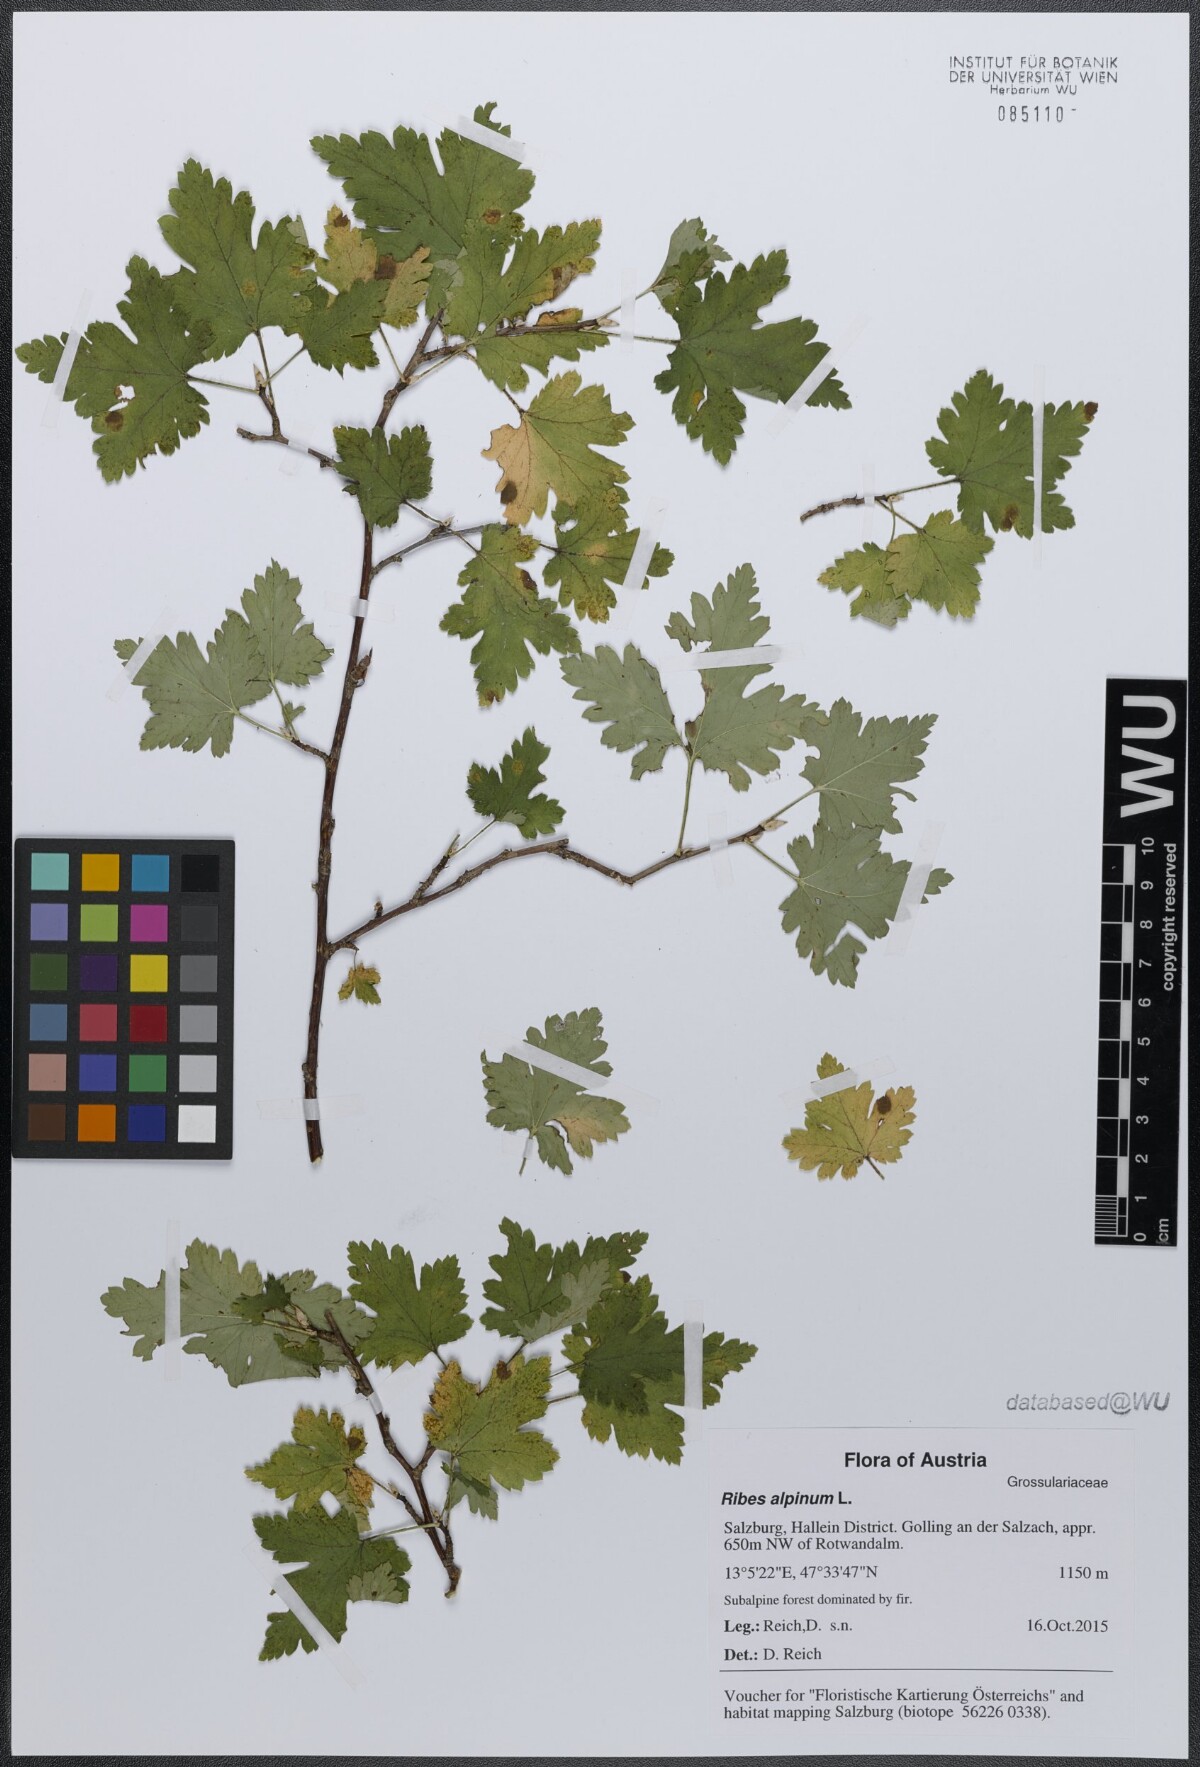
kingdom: Plantae
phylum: Tracheophyta
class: Magnoliopsida
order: Saxifragales
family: Grossulariaceae
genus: Ribes
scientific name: Ribes alpinum
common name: Alpine currant
